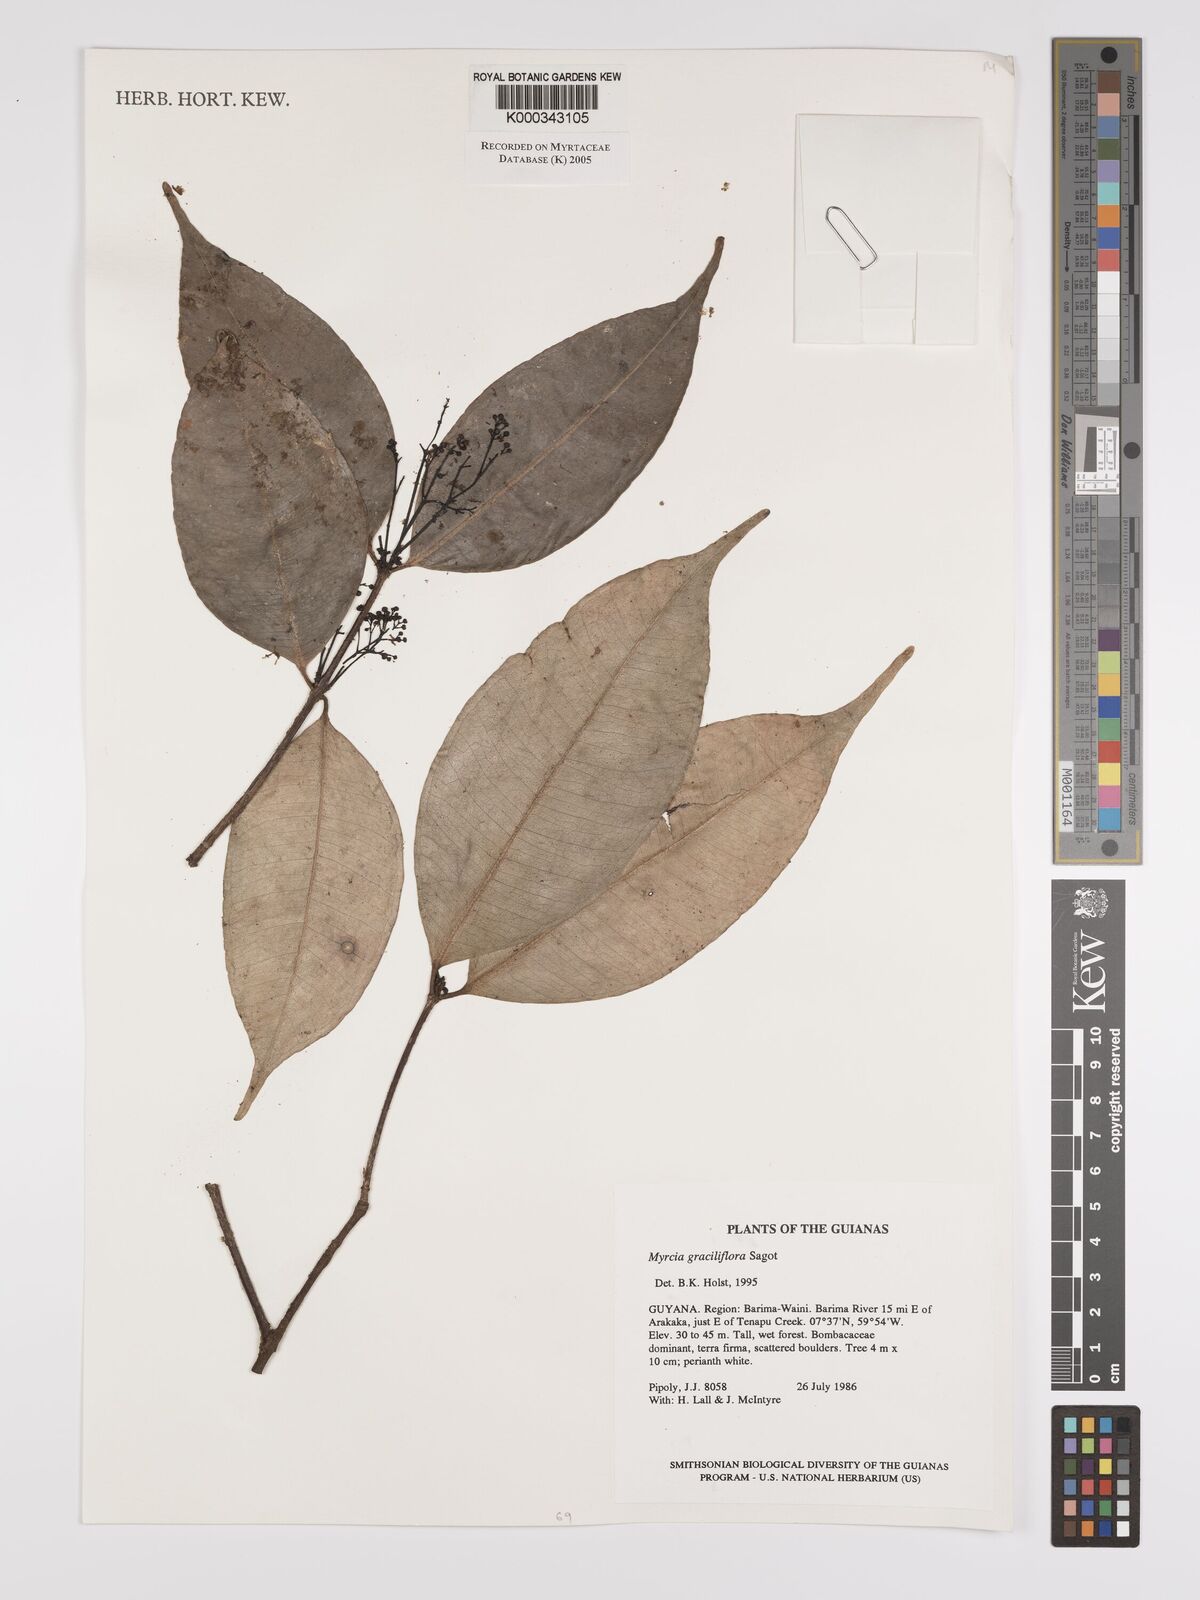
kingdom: Plantae
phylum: Tracheophyta
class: Magnoliopsida
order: Myrtales
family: Myrtaceae
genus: Myrcia
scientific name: Myrcia graciliflora
